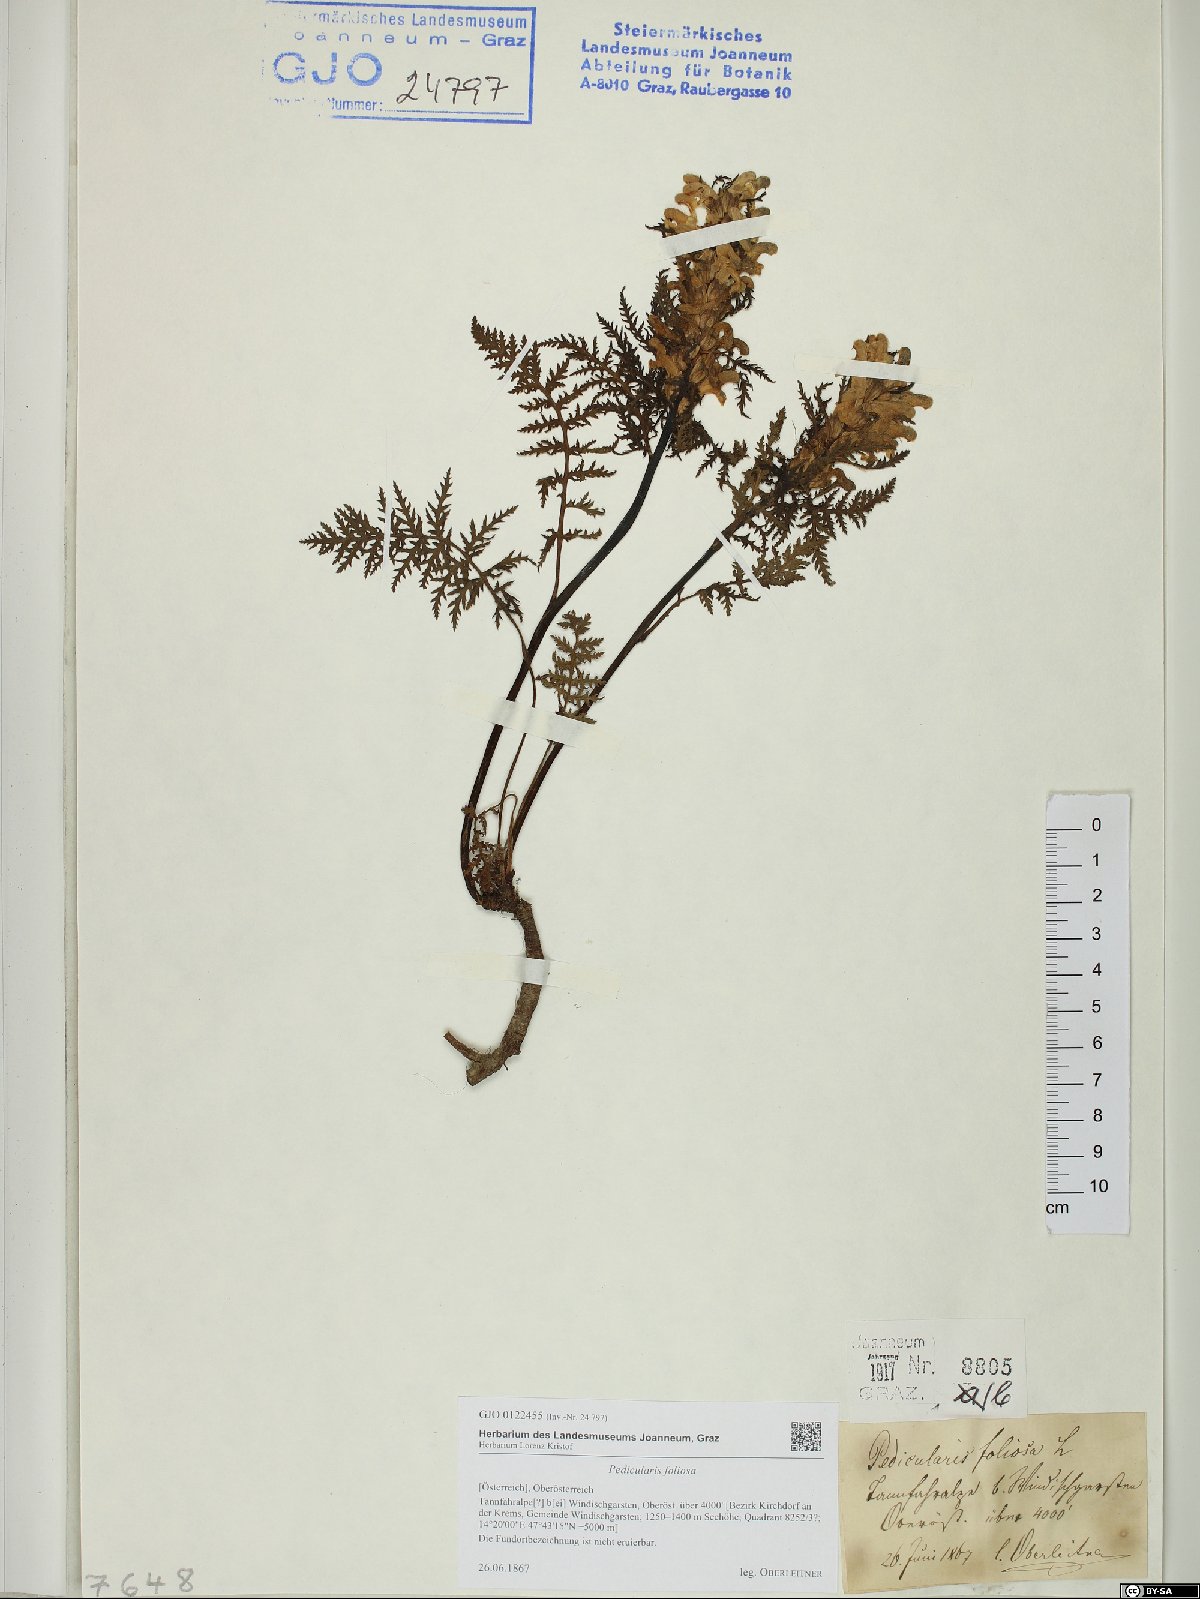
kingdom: Plantae
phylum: Tracheophyta
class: Magnoliopsida
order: Lamiales
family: Orobanchaceae
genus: Pedicularis
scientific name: Pedicularis foliosa
